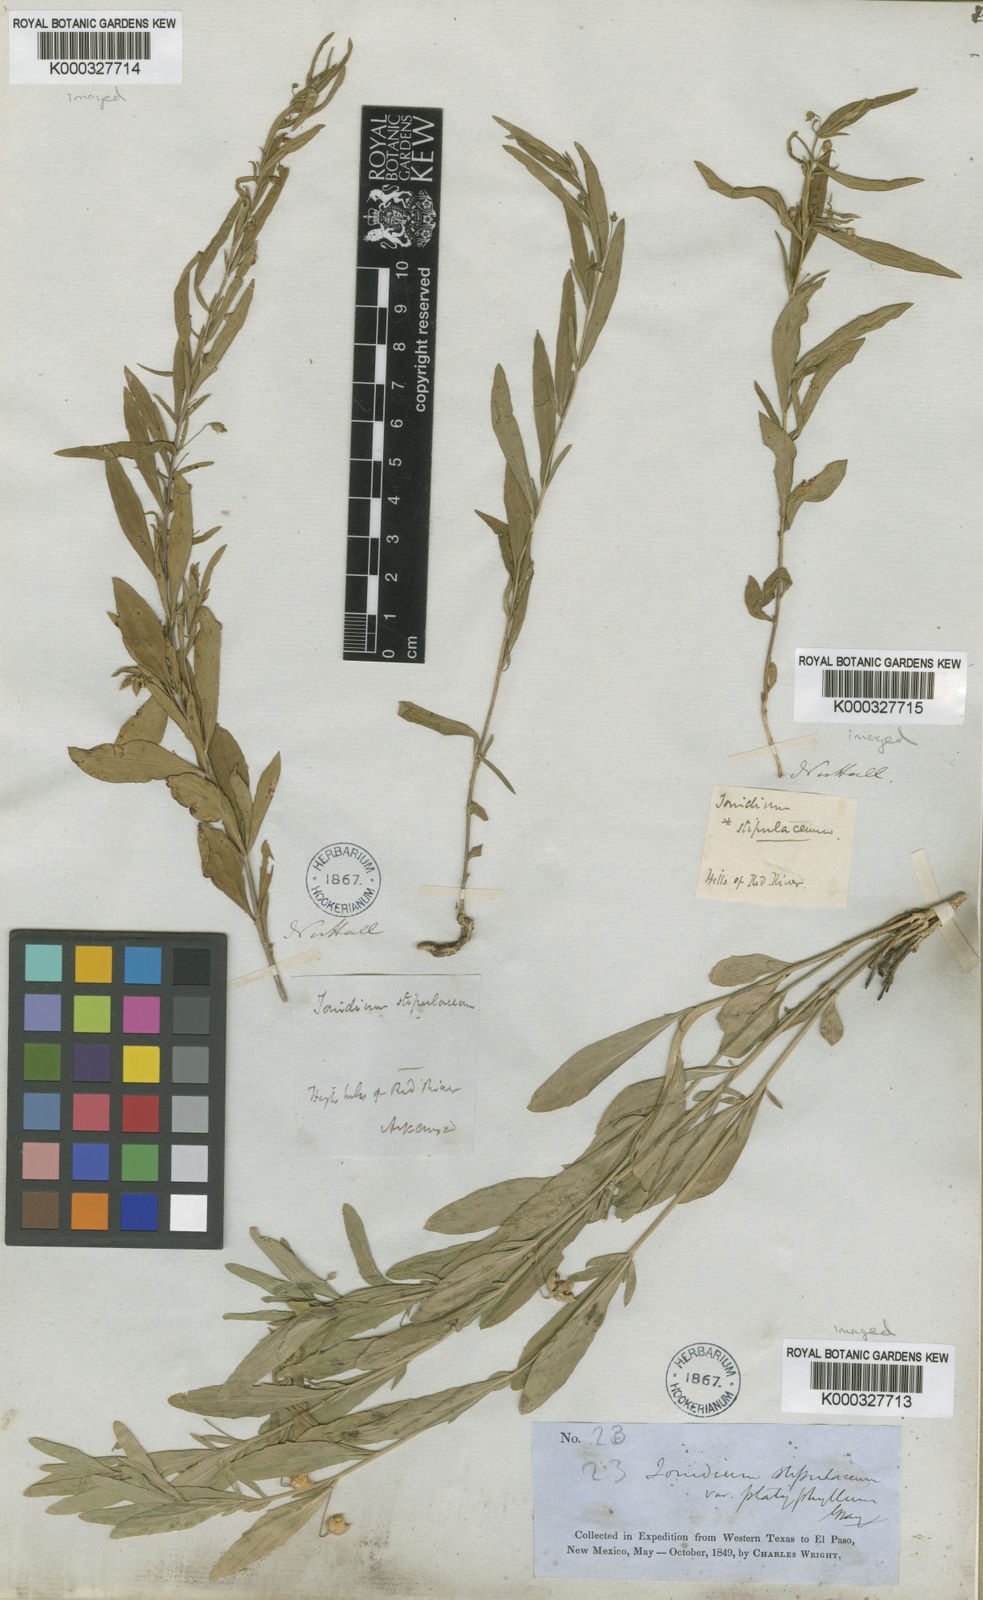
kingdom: Plantae
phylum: Tracheophyta
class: Magnoliopsida
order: Malpighiales
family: Violaceae
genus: Pombalia
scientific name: Pombalia verticillata
